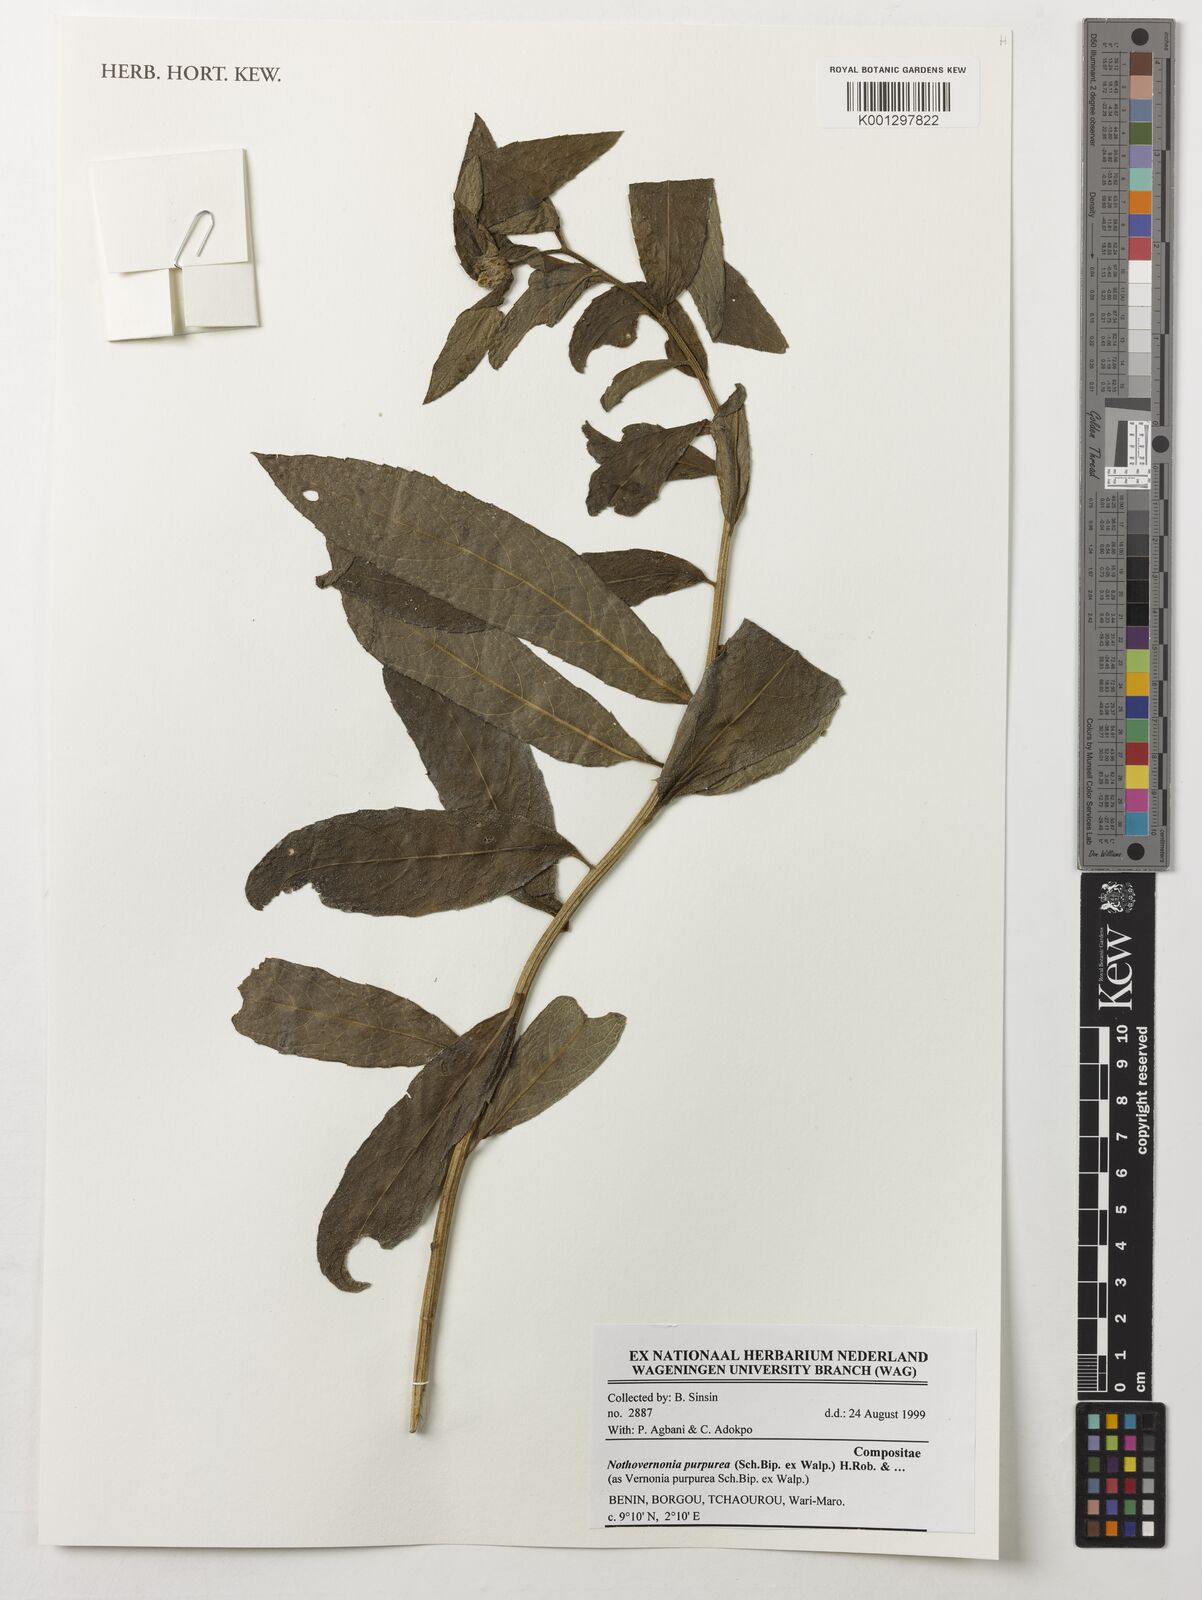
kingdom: Plantae
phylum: Tracheophyta
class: Magnoliopsida
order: Asterales
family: Asteraceae
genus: Nothovernonia
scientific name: Nothovernonia purpurea
